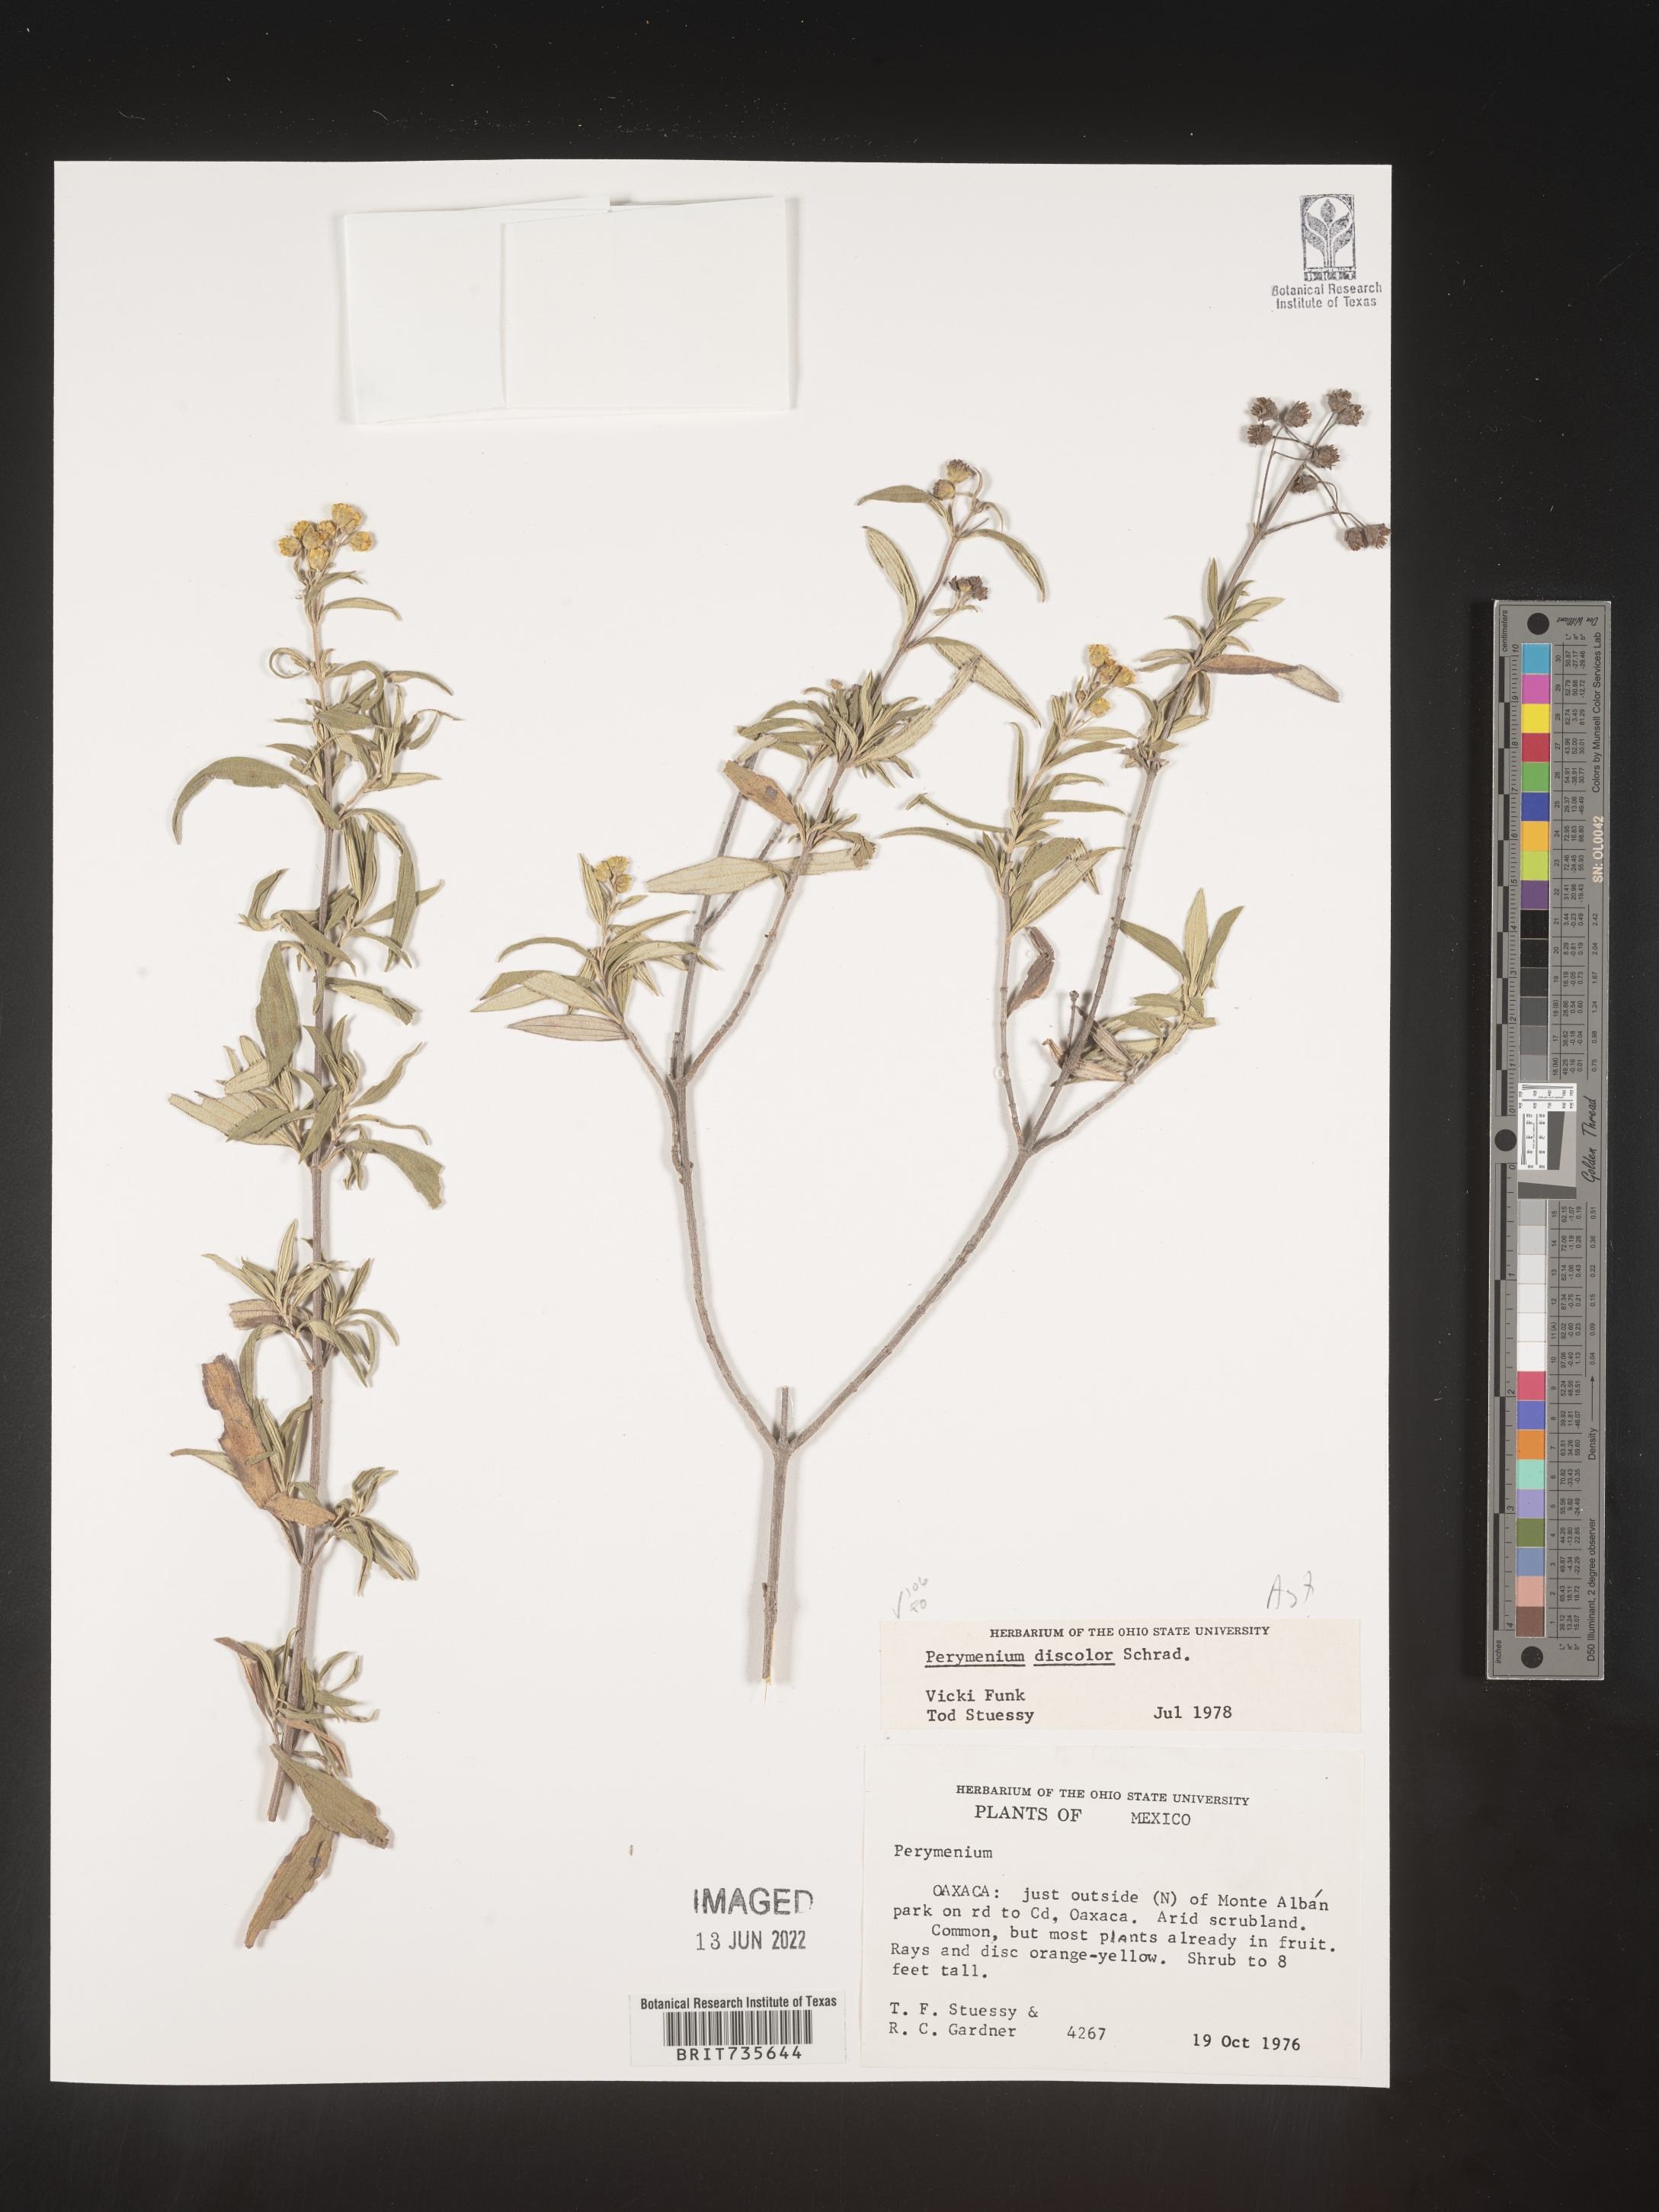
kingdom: Plantae
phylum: Tracheophyta
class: Magnoliopsida
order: Asterales
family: Asteraceae
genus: Perymenium
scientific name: Perymenium
